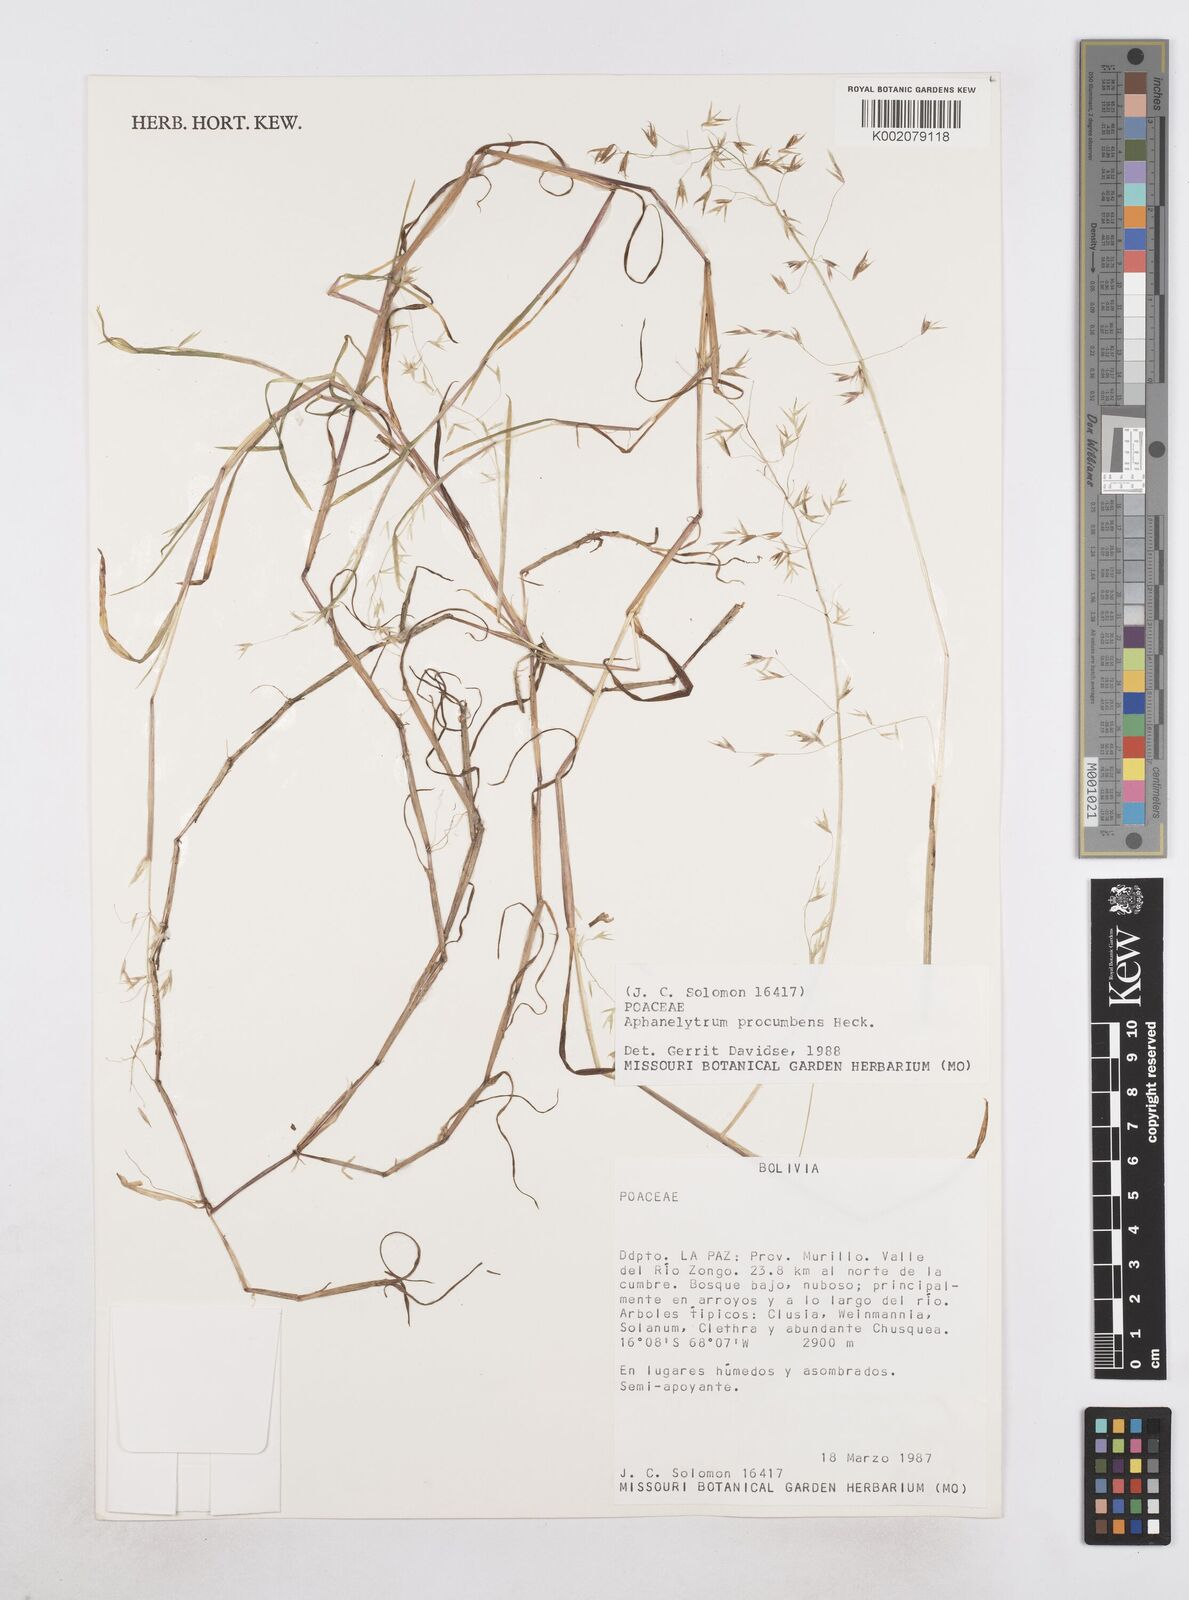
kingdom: Plantae
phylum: Tracheophyta
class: Liliopsida
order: Poales
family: Poaceae
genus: Poa
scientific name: Poa hitchcockiana
